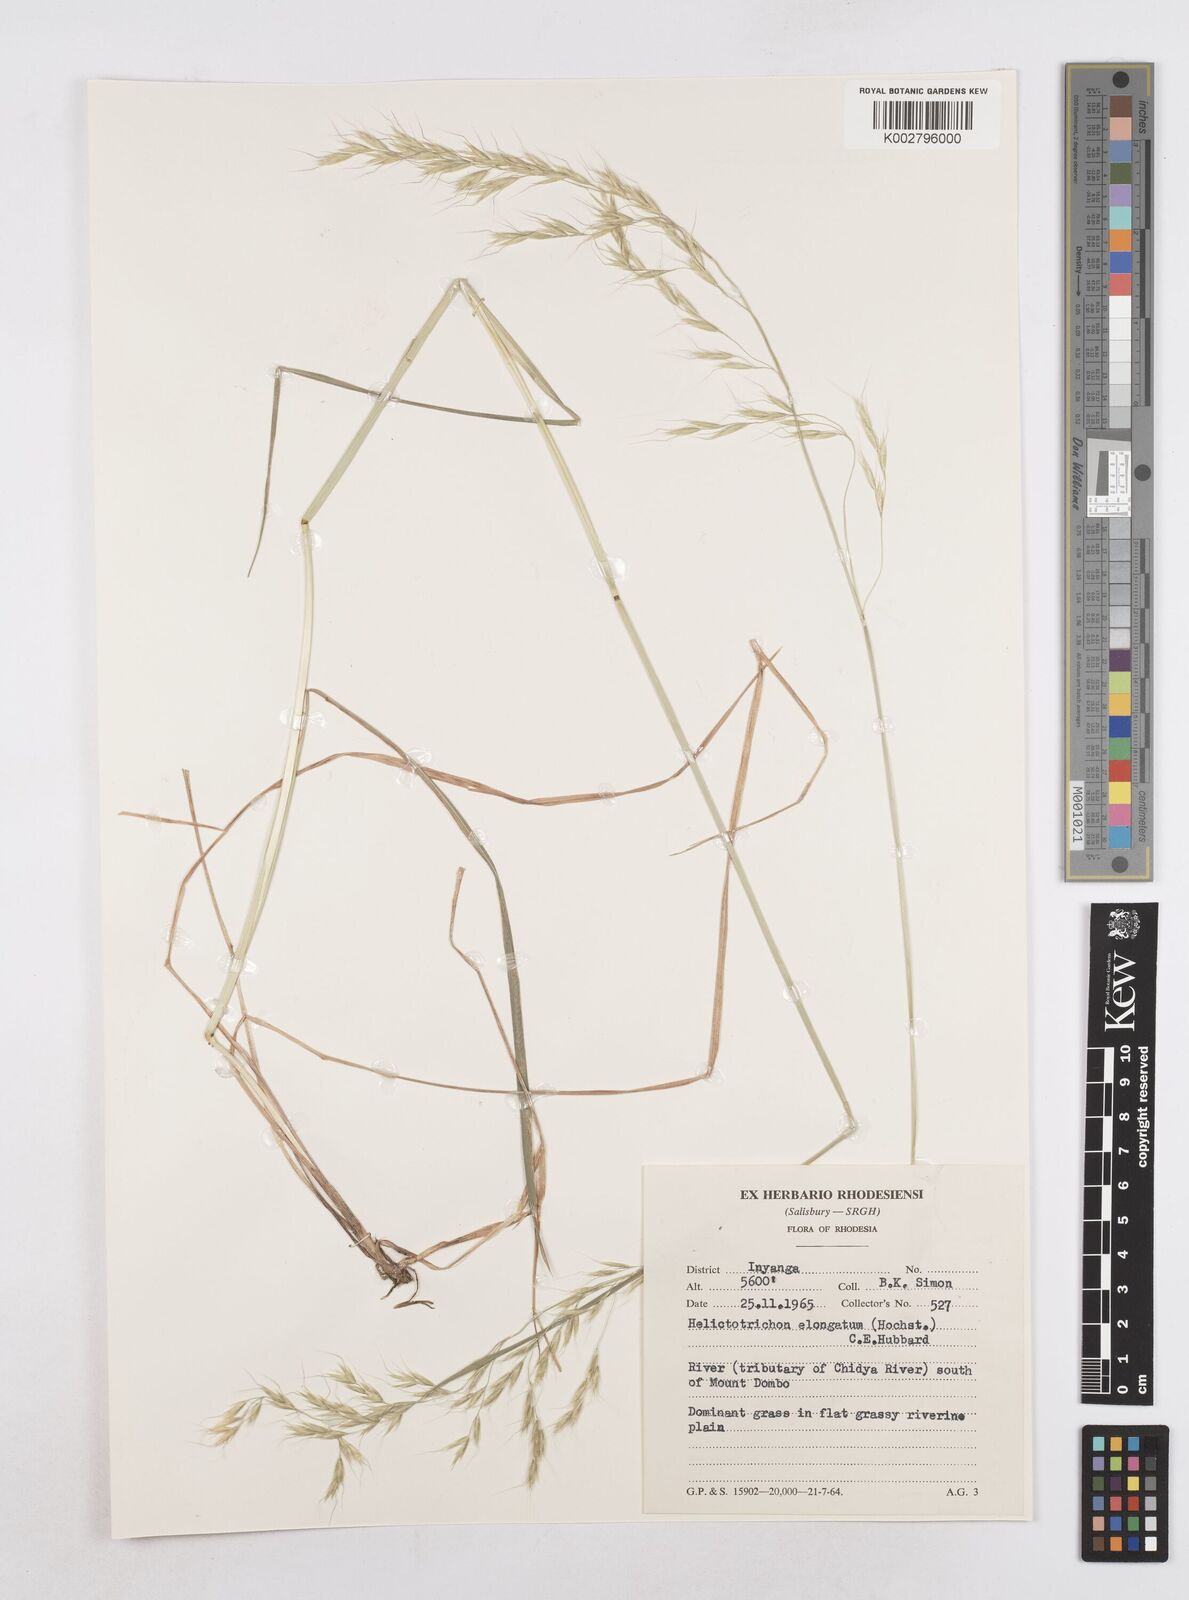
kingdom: Plantae
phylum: Tracheophyta
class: Liliopsida
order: Poales
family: Poaceae
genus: Trisetopsis
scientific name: Trisetopsis elongata
